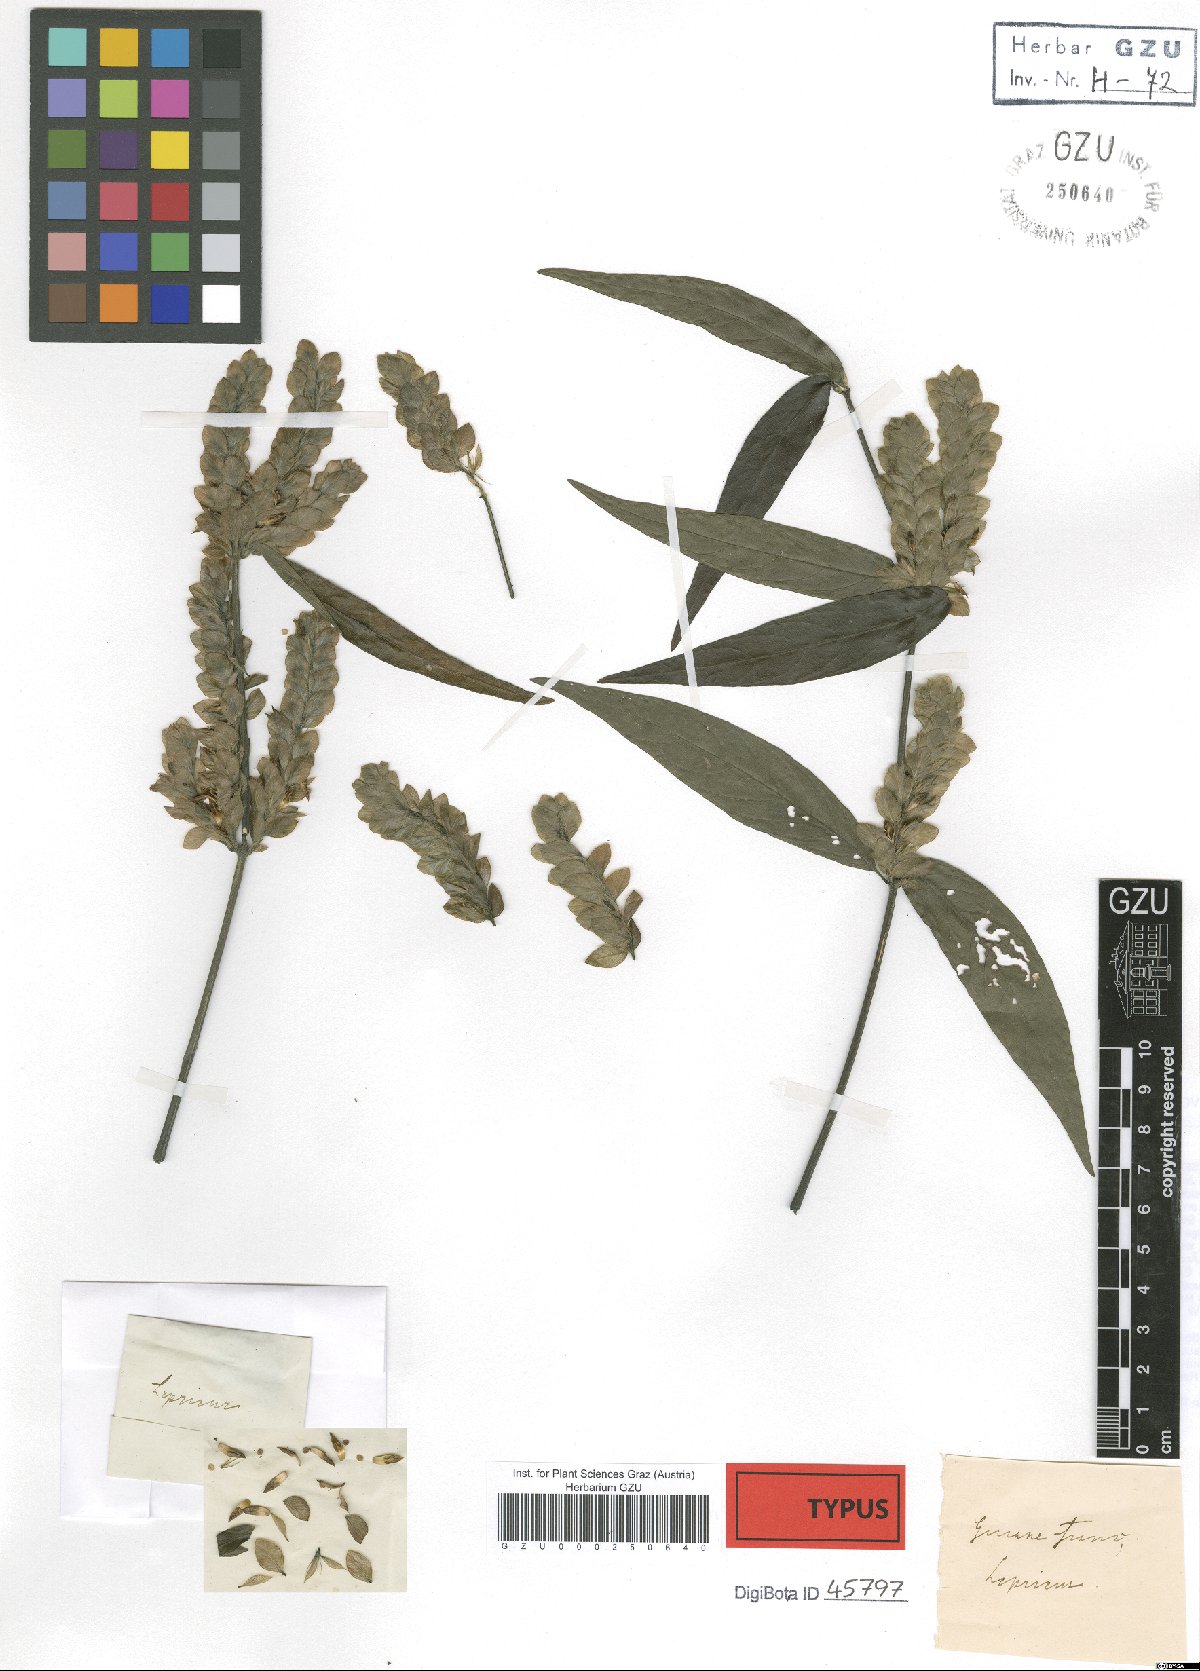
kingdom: Plantae
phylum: Tracheophyta
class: Magnoliopsida
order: Lamiales
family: Acanthaceae
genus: Justicia
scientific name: Justicia polystachya
